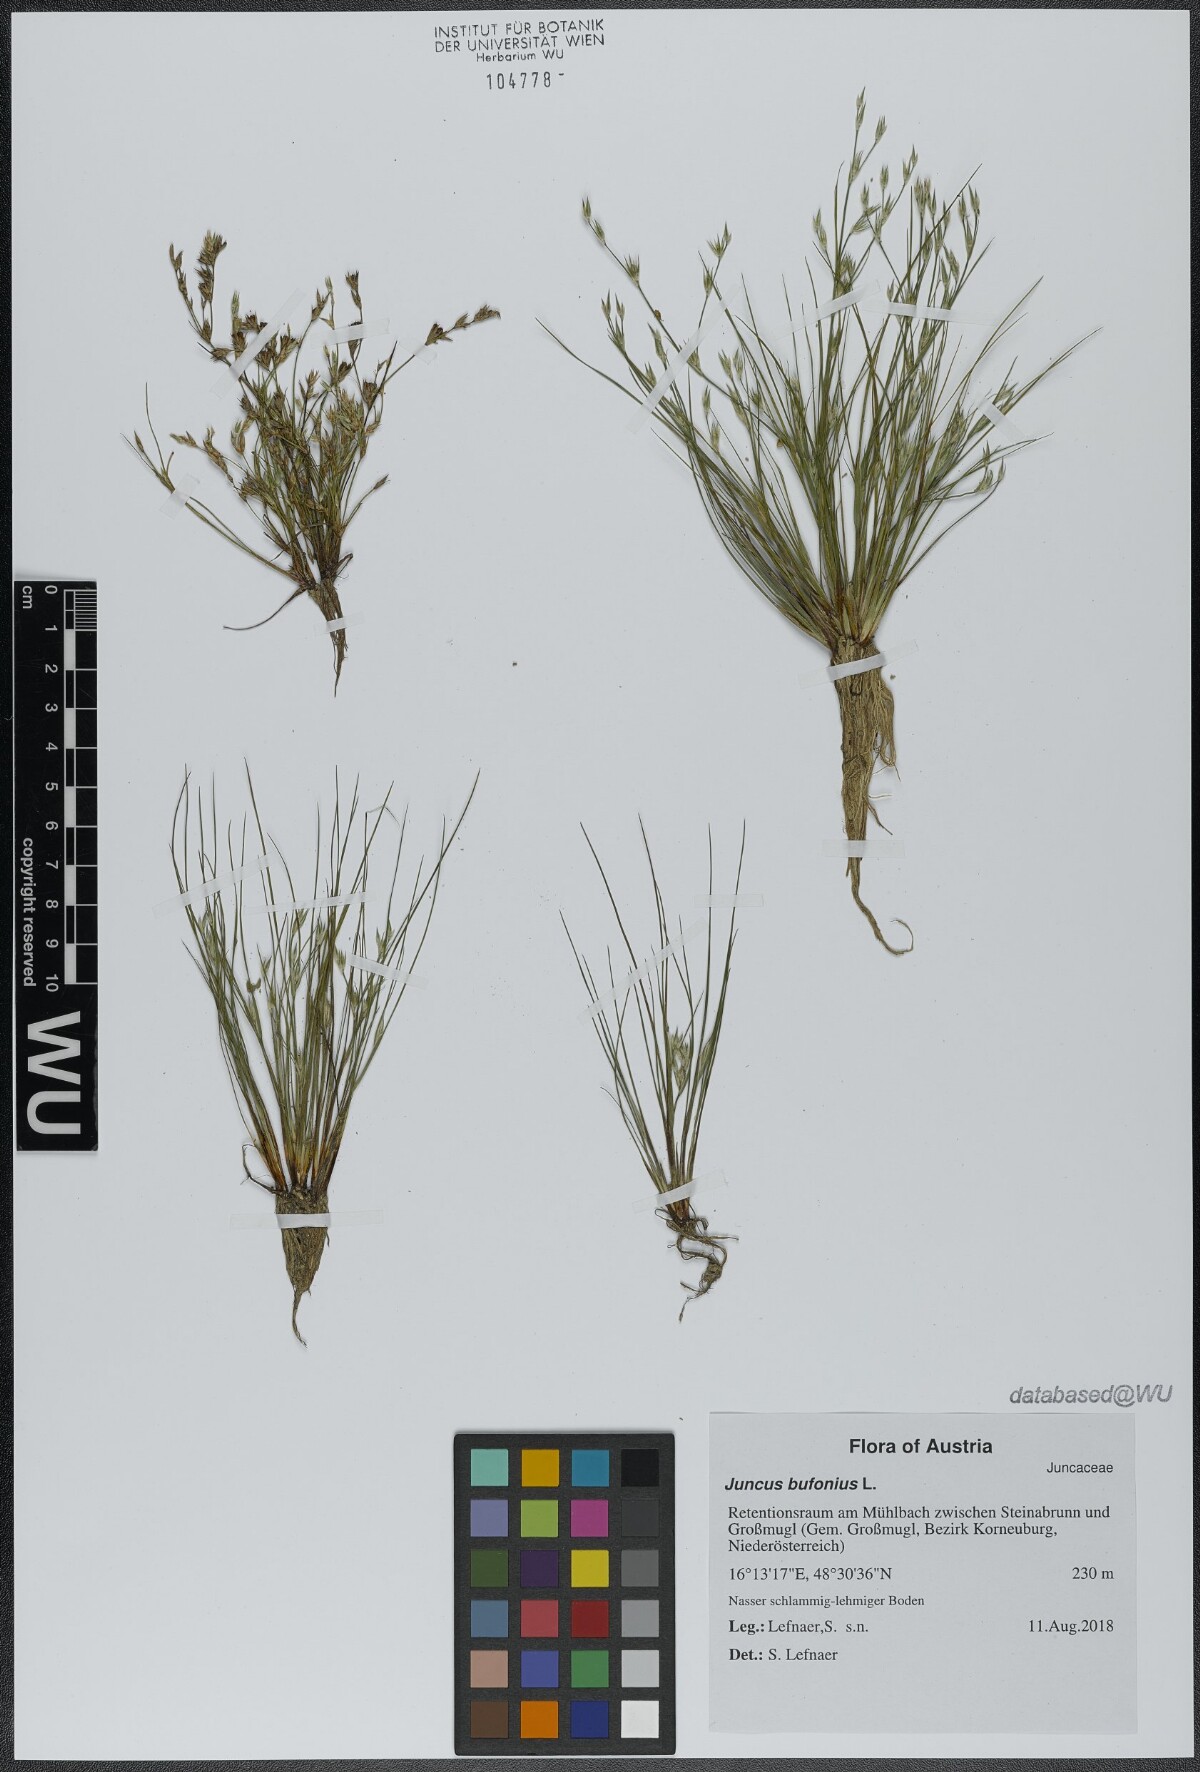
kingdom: Plantae
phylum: Tracheophyta
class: Liliopsida
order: Poales
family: Juncaceae
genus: Juncus
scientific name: Juncus bufonius
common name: Toad rush
